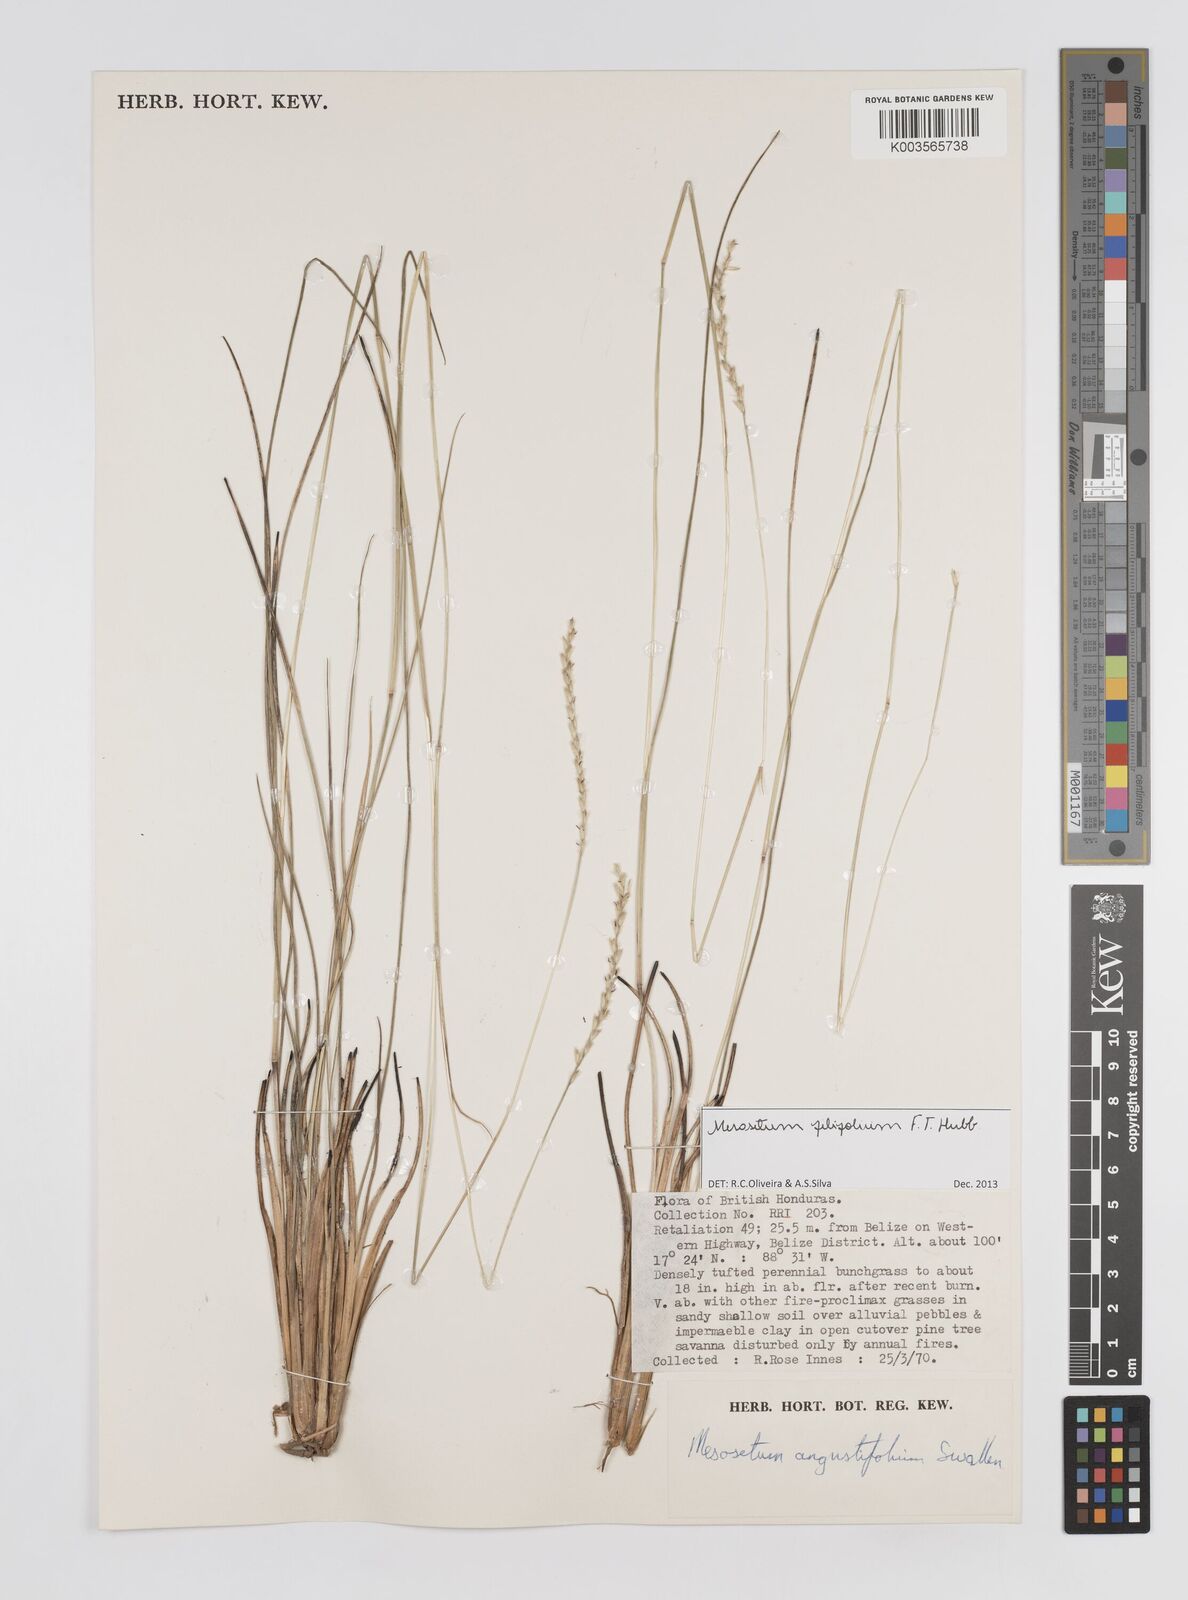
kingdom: Plantae
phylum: Tracheophyta
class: Liliopsida
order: Poales
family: Poaceae
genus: Mesosetum
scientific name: Mesosetum filifolium
